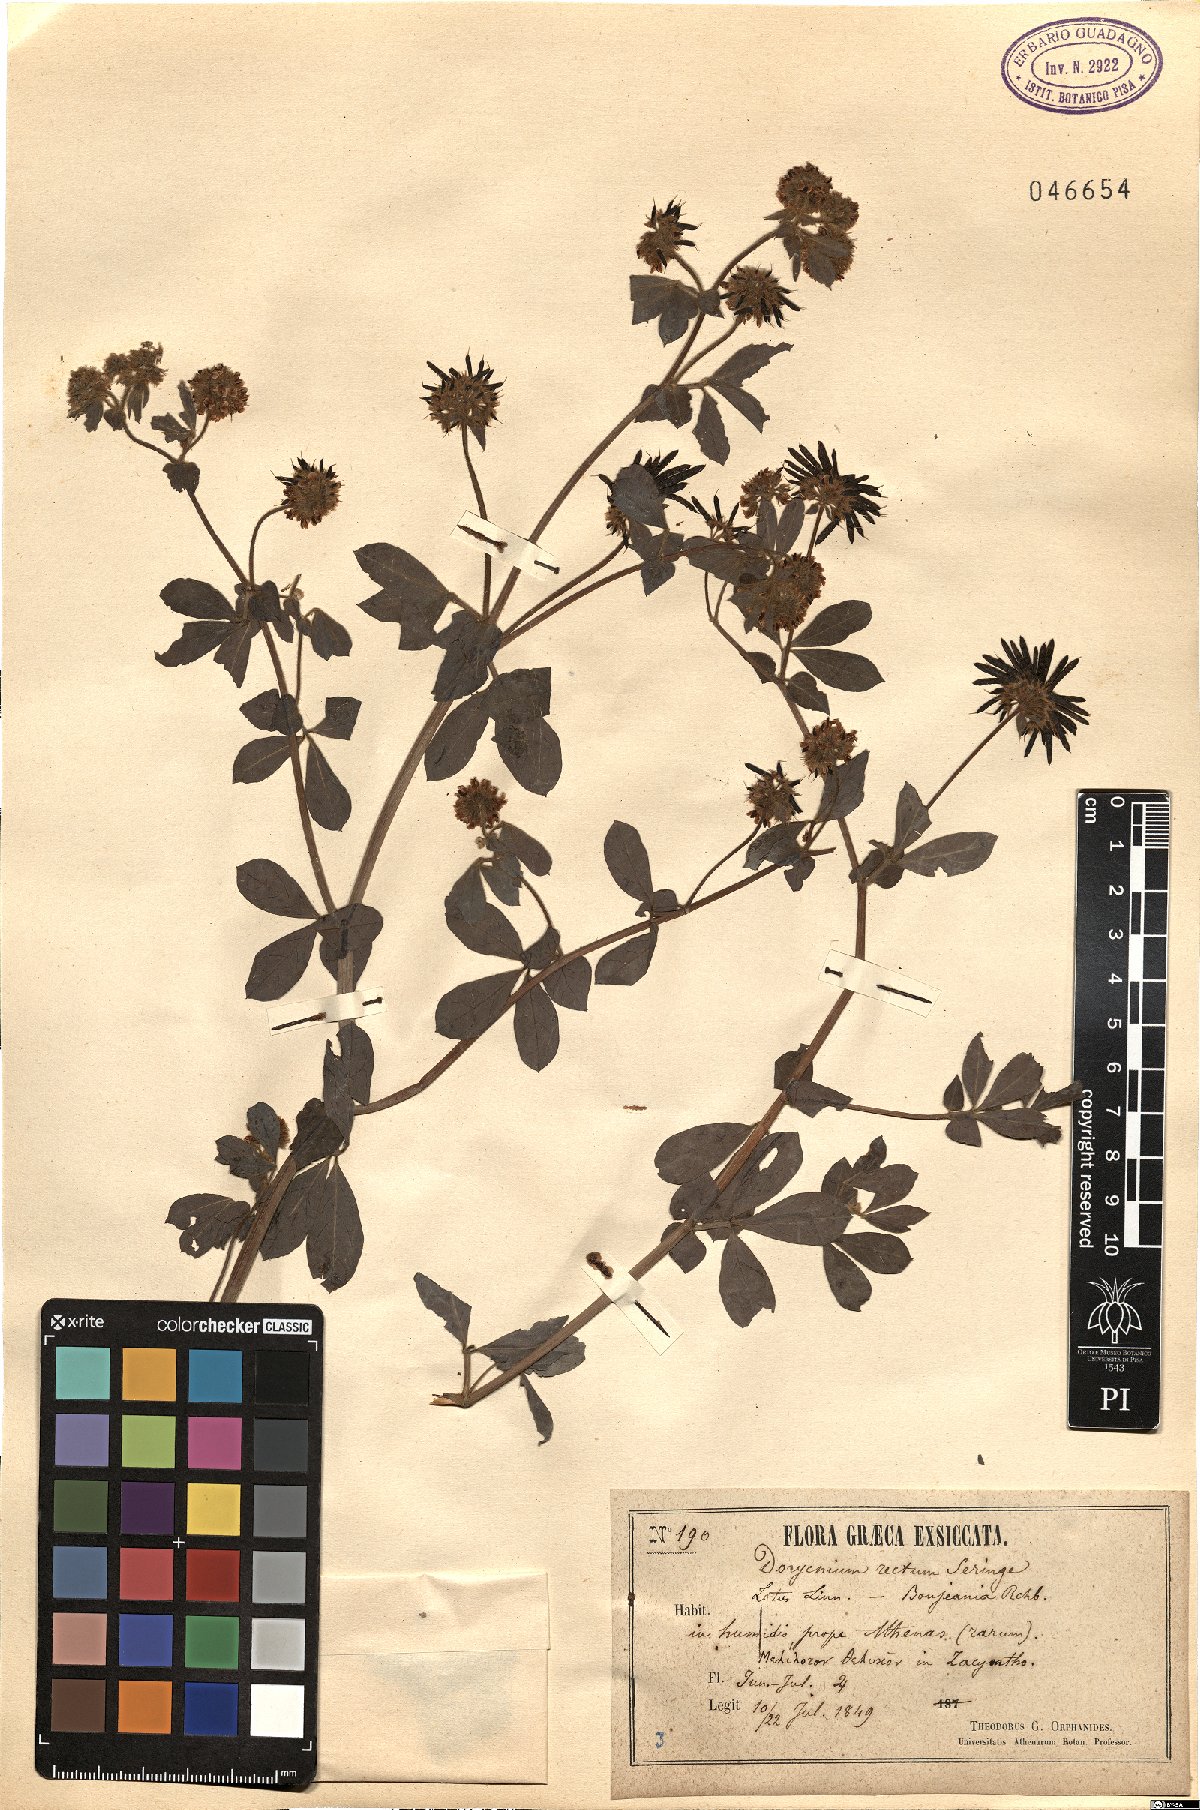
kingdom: Plantae
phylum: Tracheophyta
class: Magnoliopsida
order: Fabales
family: Fabaceae
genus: Lotus
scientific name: Lotus rectus
